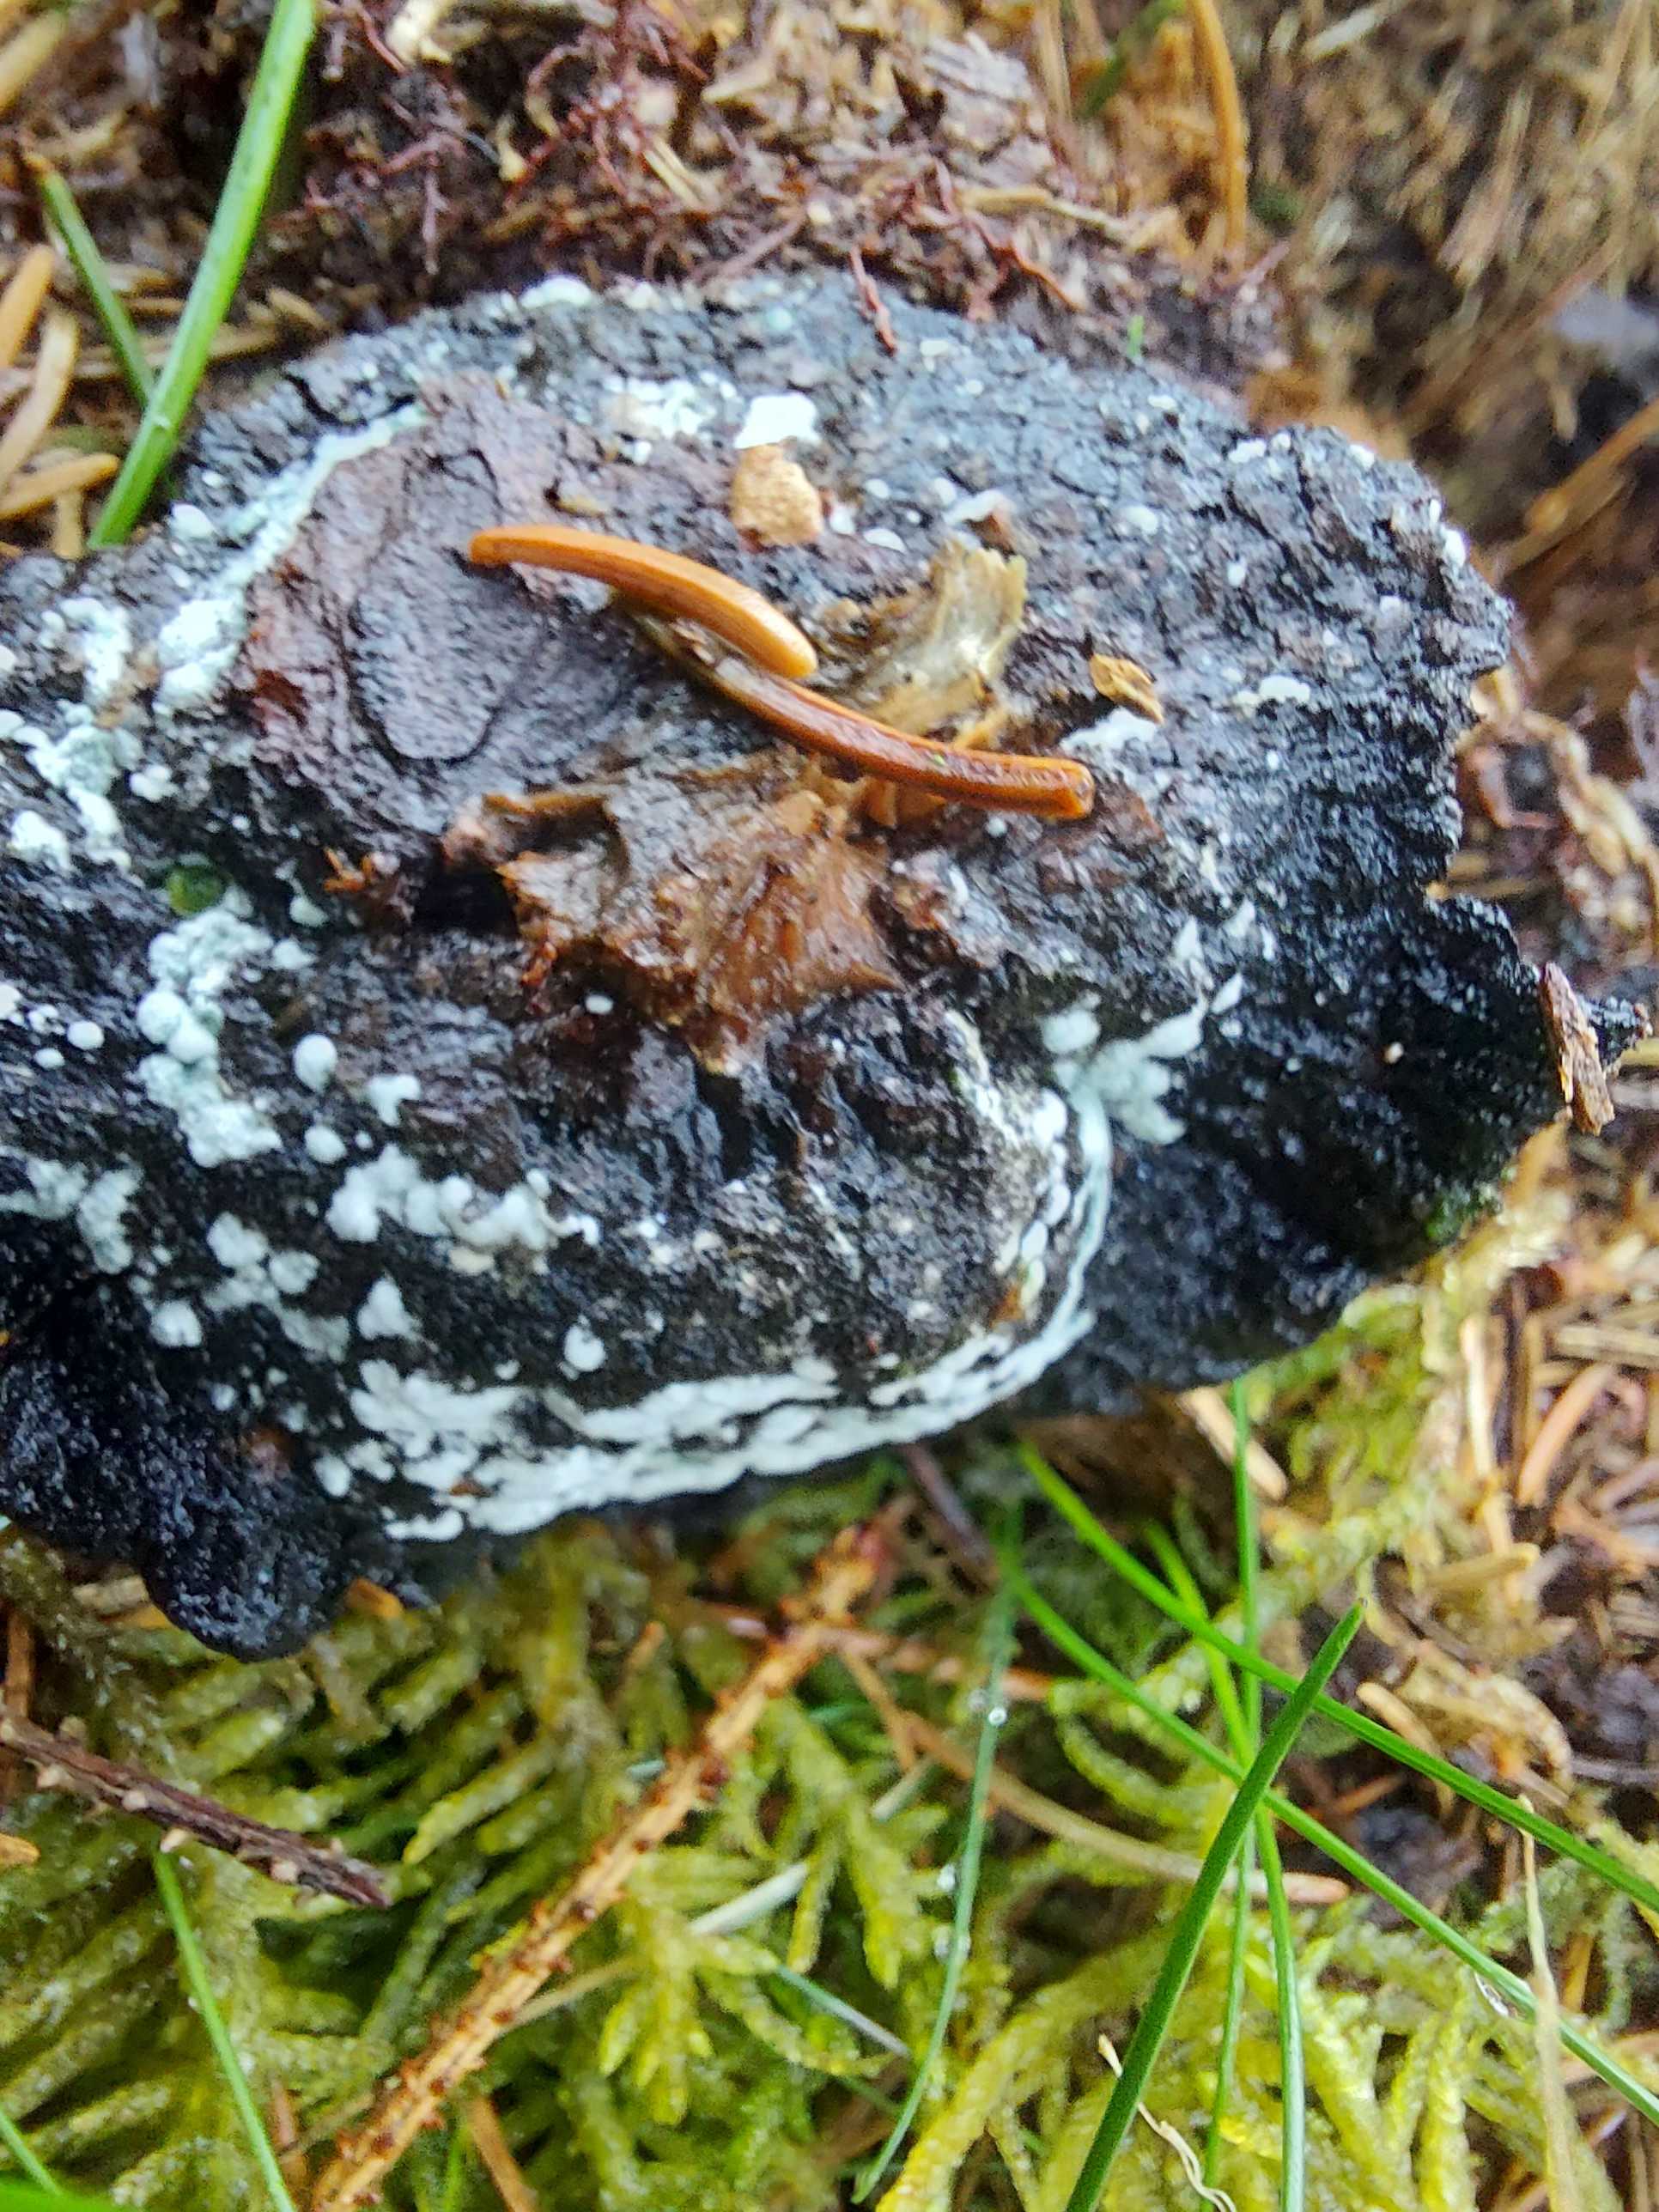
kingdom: Fungi
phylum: Ascomycota
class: Sordariomycetes
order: Hypocreales
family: Hypocreaceae
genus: Trichoderma
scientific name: Trichoderma
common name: kødkerne
